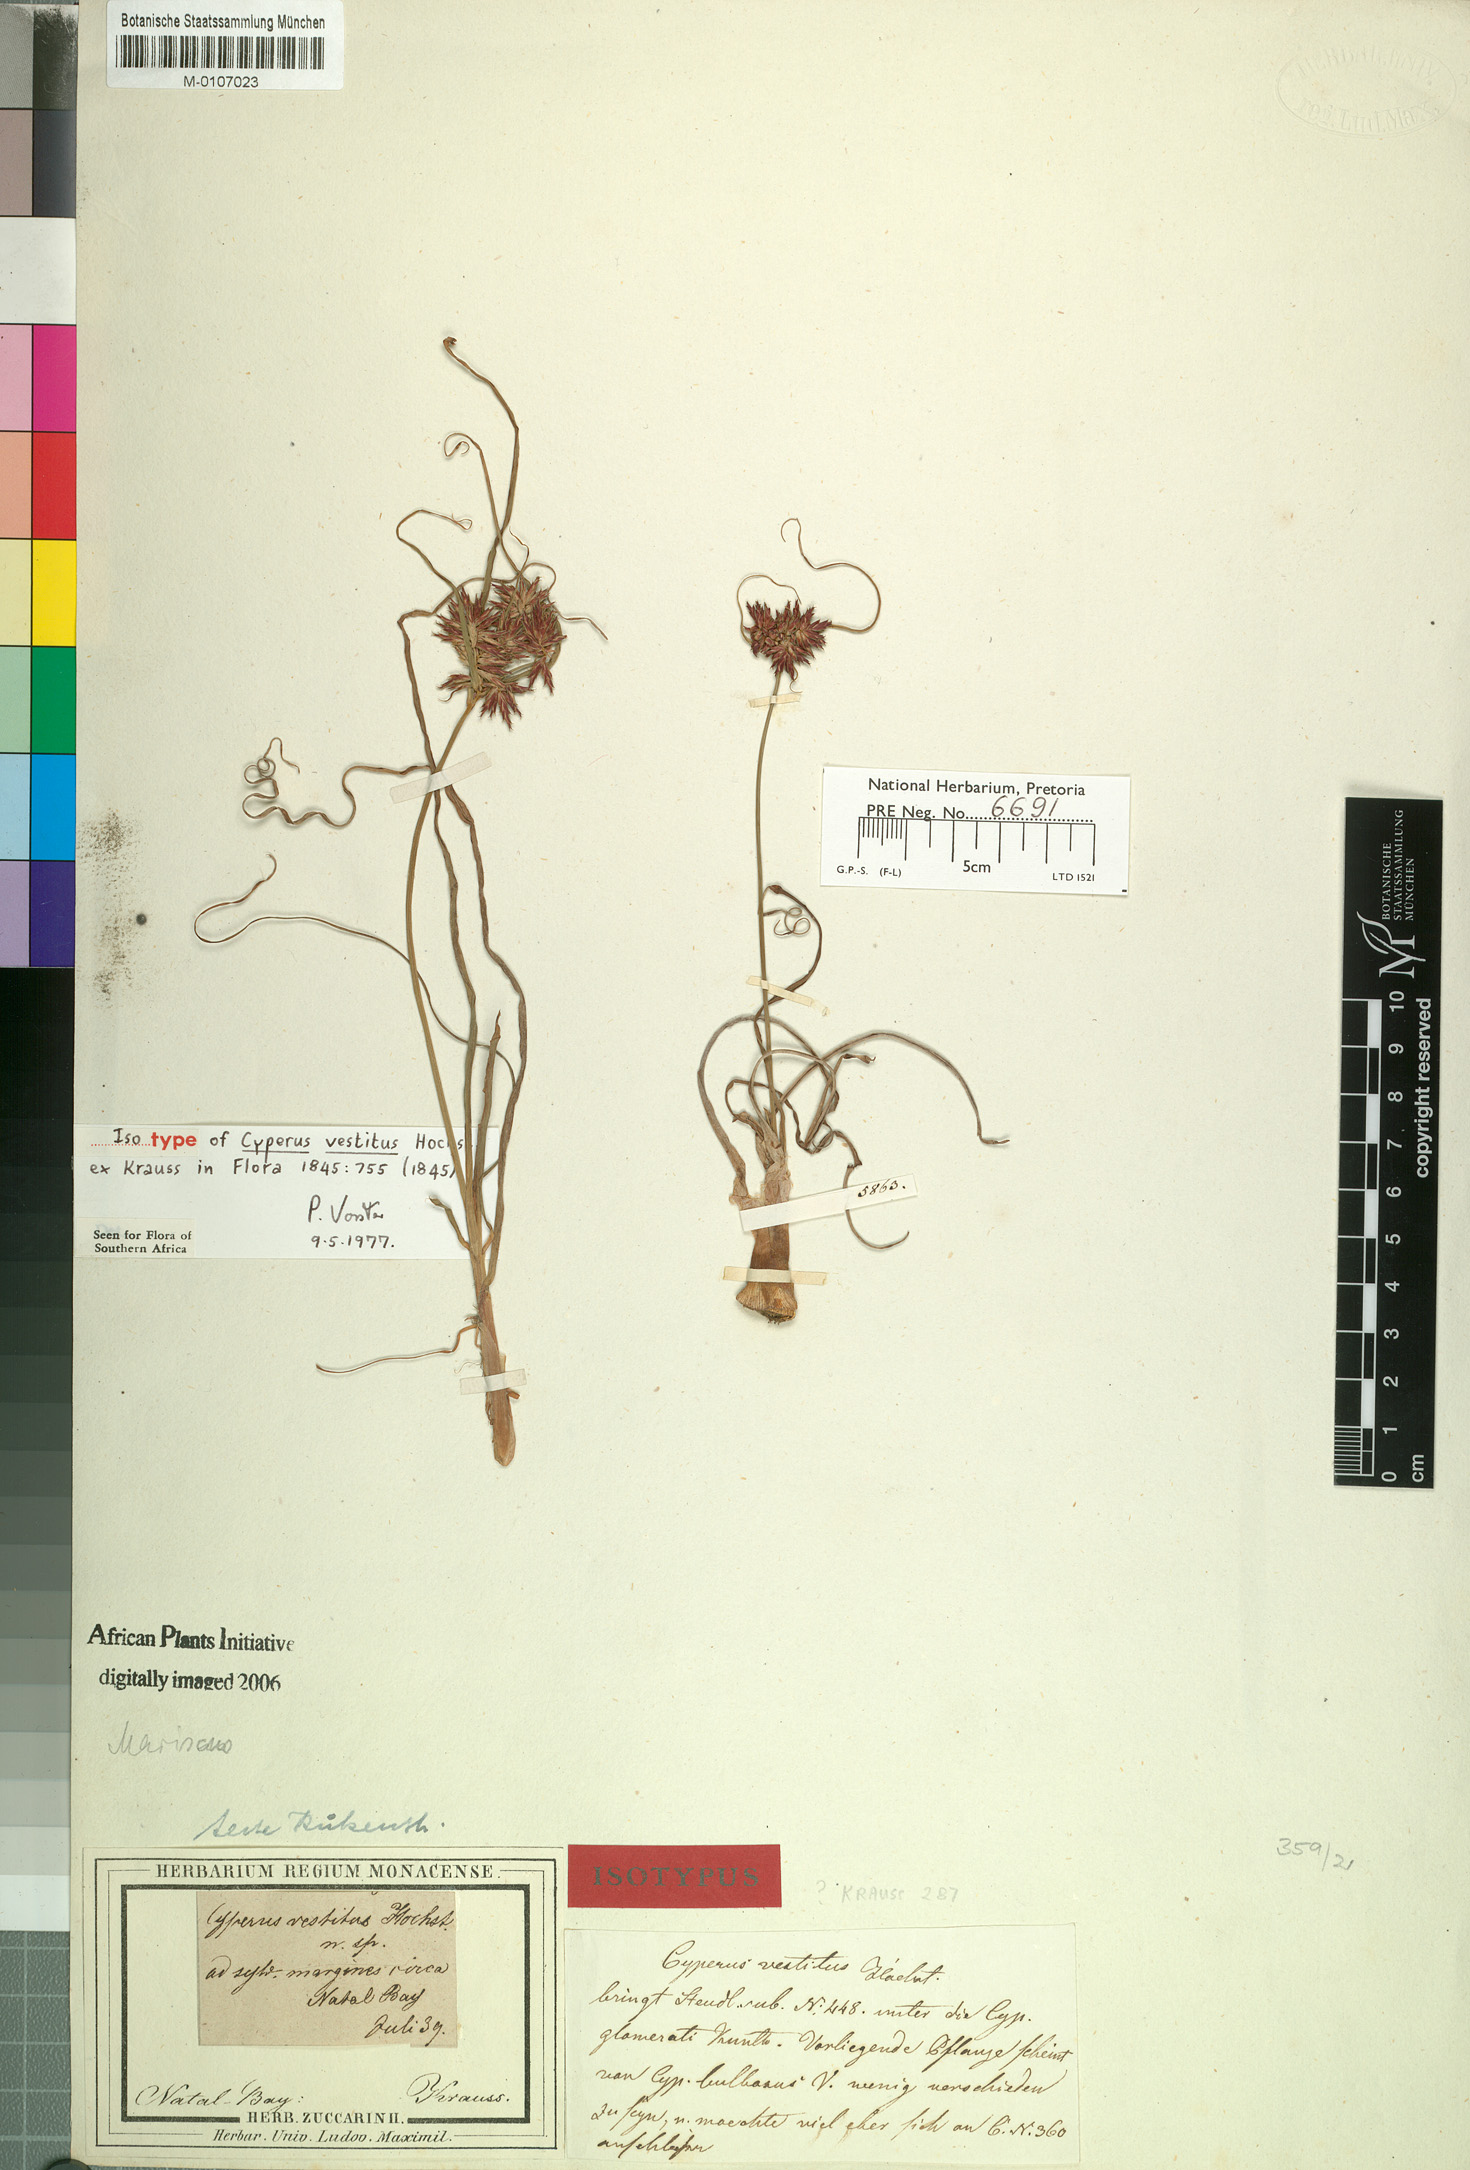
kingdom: Plantae
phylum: Tracheophyta
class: Liliopsida
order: Poales
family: Cyperaceae
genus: Cyperus
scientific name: Cyperus vestitus
